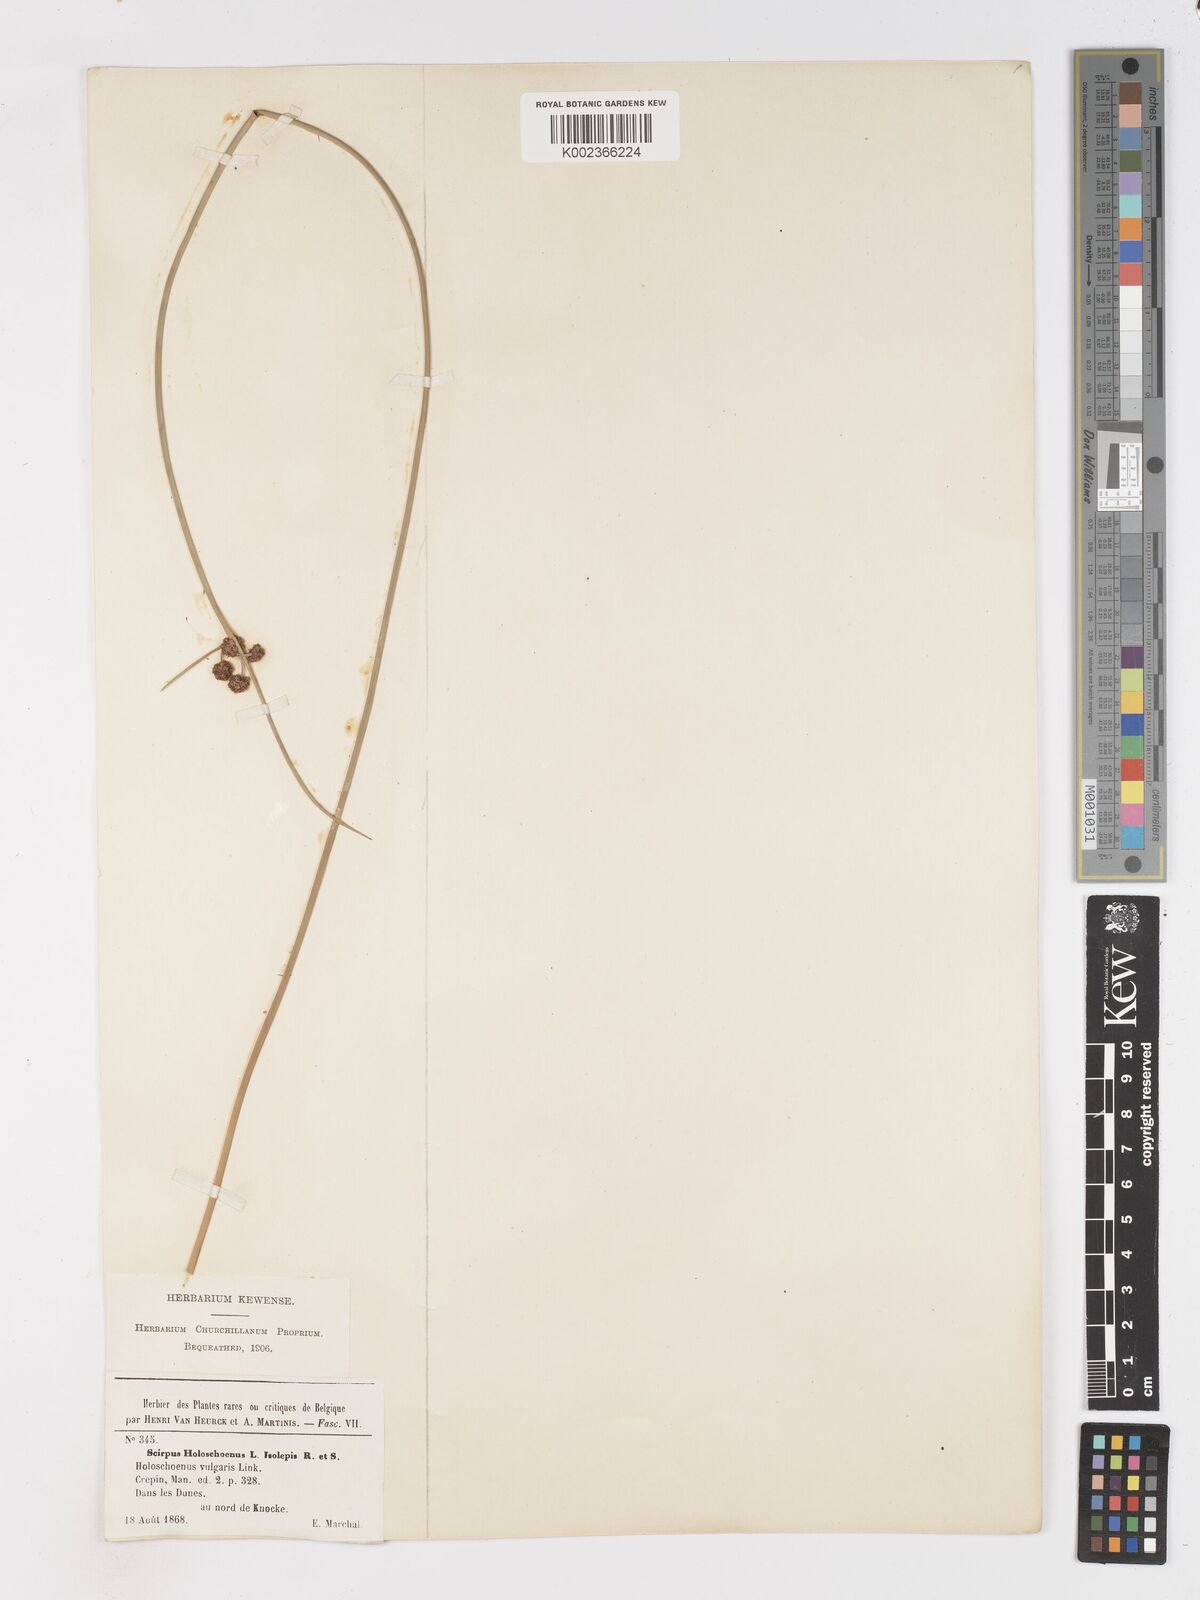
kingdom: Plantae
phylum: Tracheophyta
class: Liliopsida
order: Poales
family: Cyperaceae
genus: Scirpoides
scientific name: Scirpoides holoschoenus
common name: Round-headed club-rush
